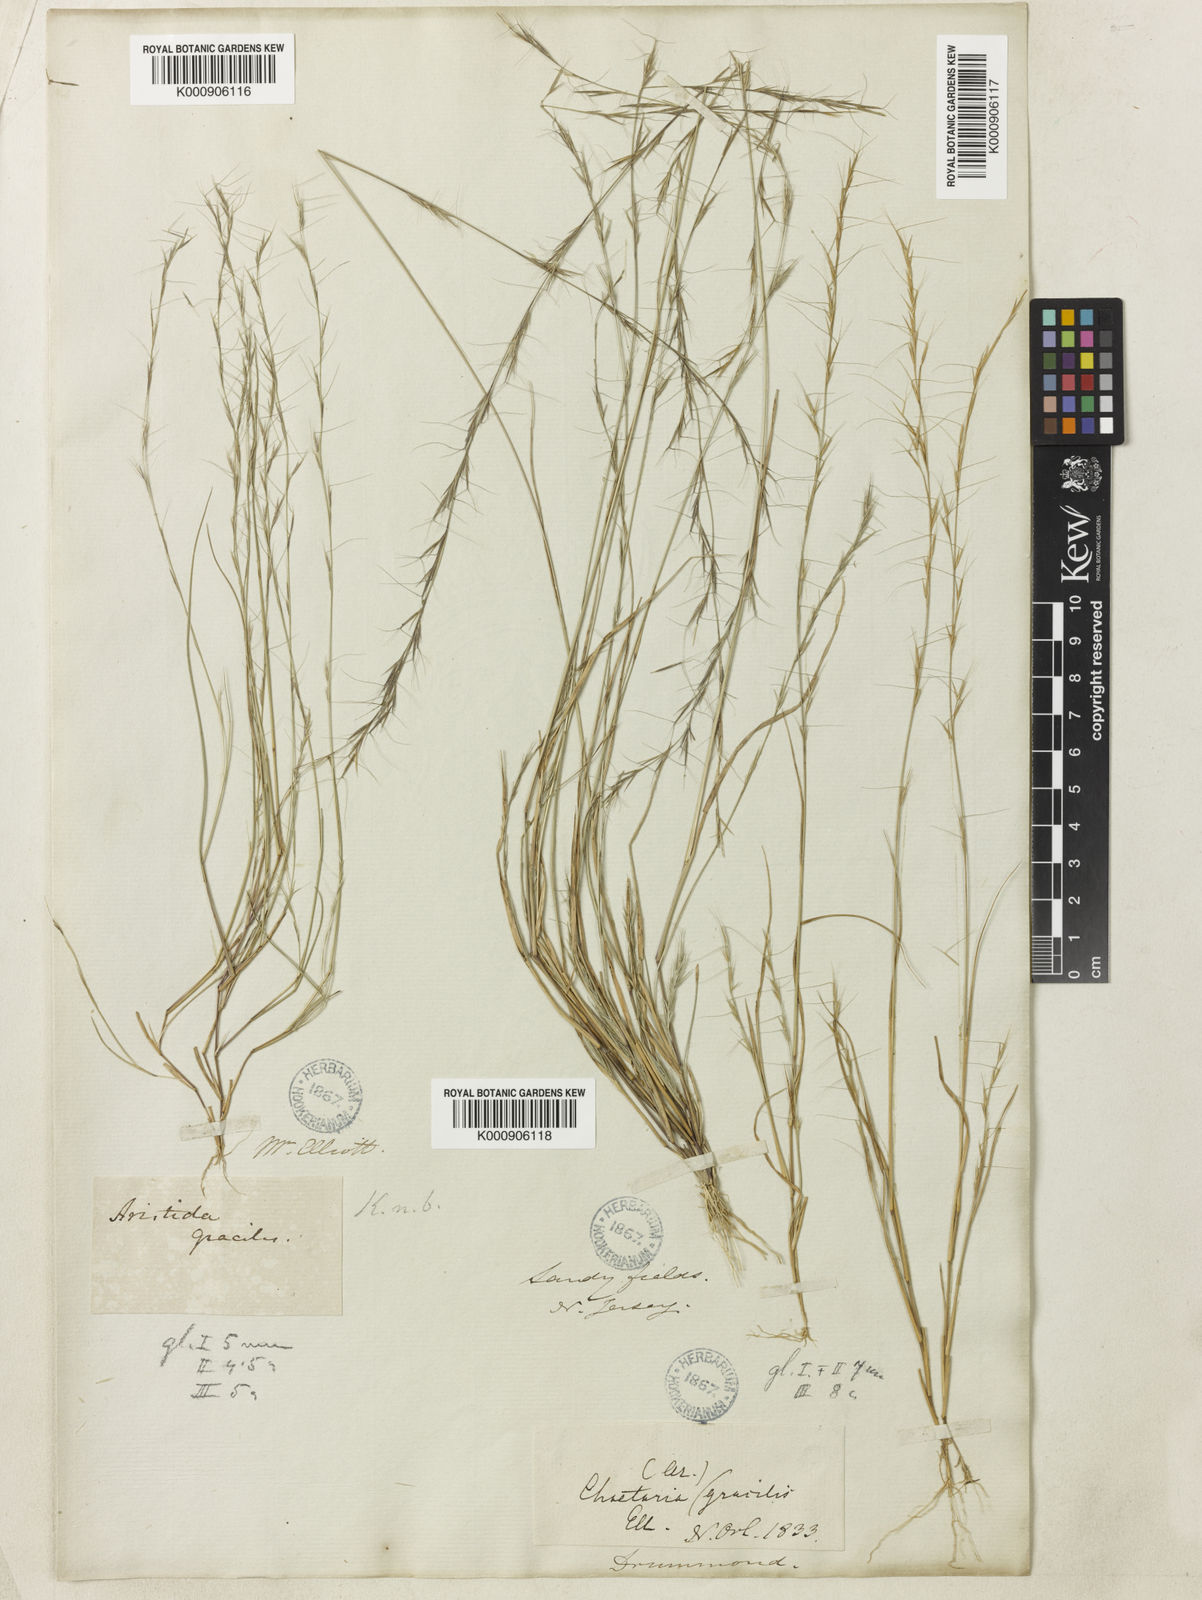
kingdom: Plantae
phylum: Tracheophyta
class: Liliopsida
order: Poales
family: Poaceae
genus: Aristida
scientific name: Aristida longespica
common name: Long-spiked triple-awned grass
